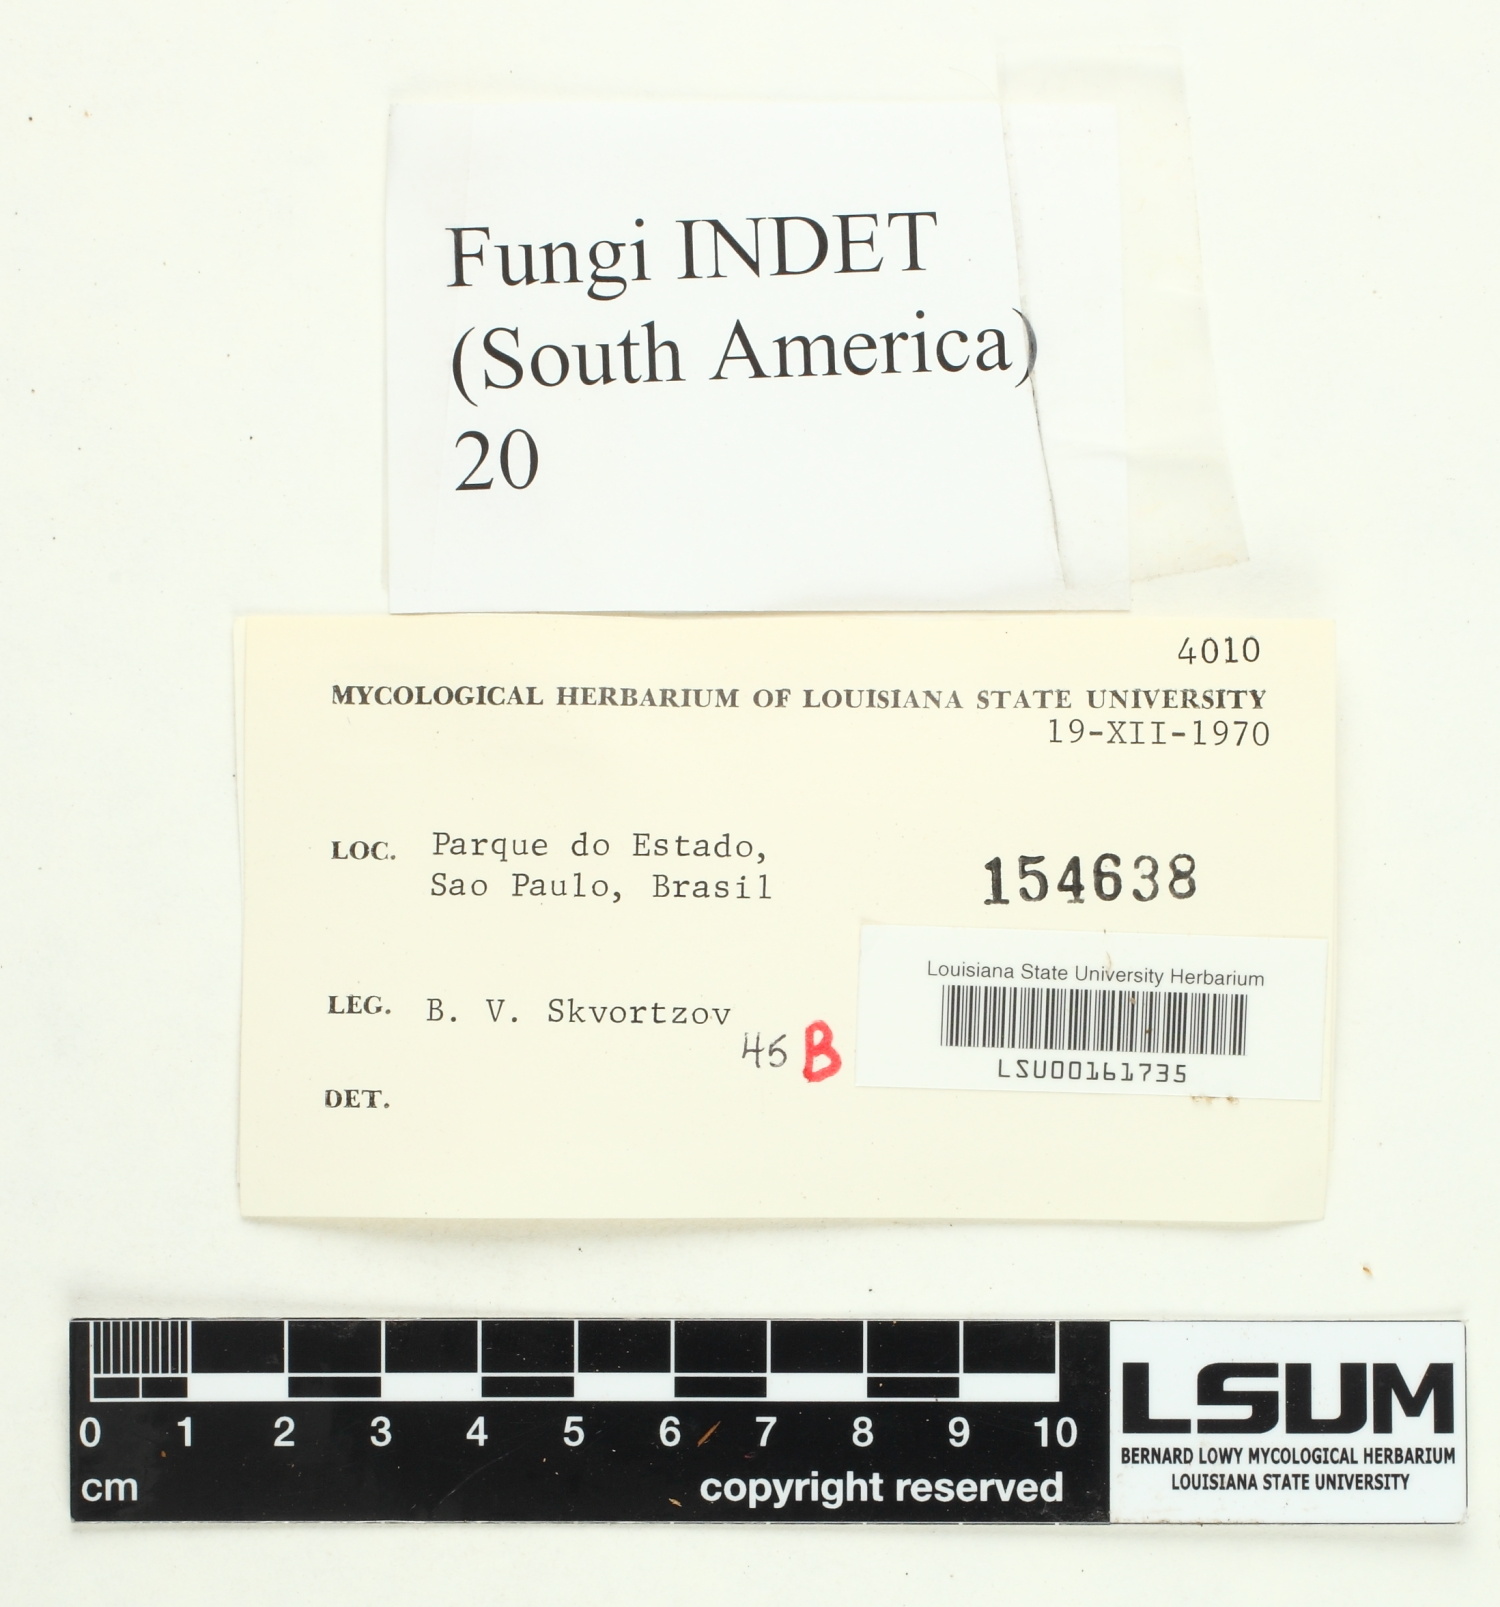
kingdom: Fungi
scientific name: Fungi
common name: Fungi
